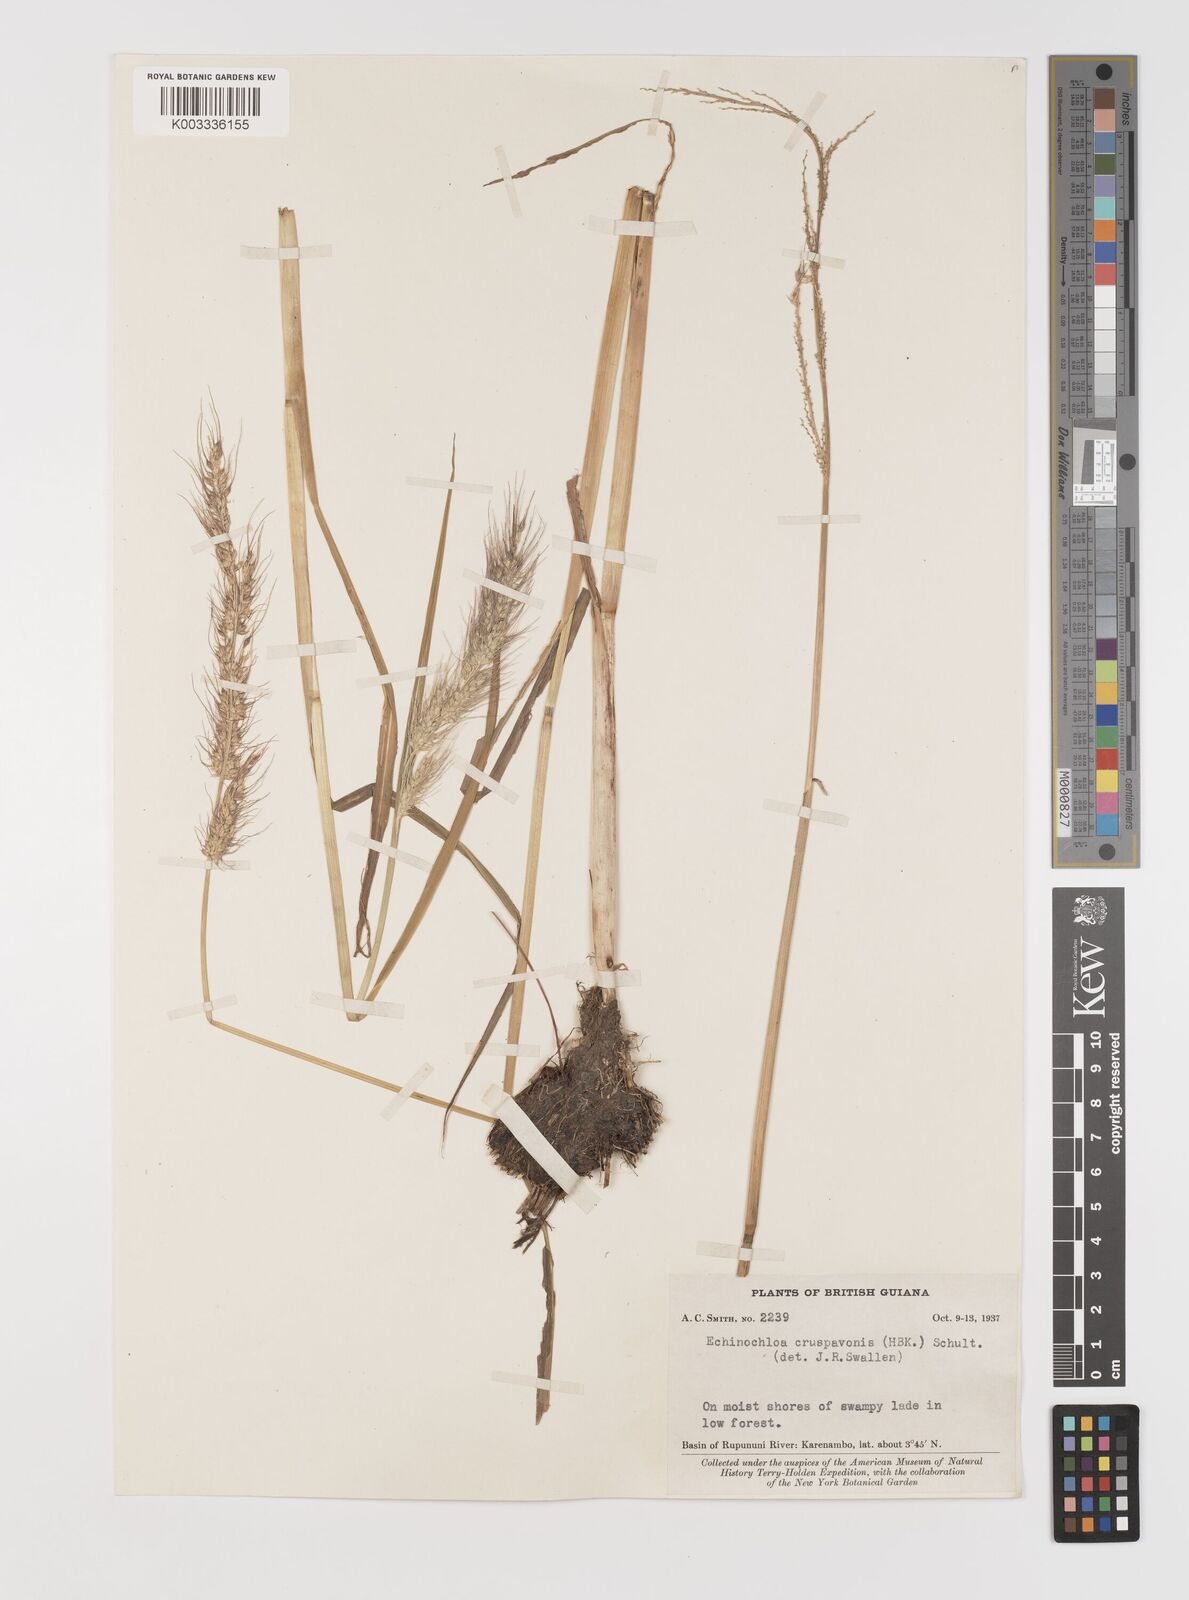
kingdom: Plantae
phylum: Tracheophyta
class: Liliopsida
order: Poales
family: Poaceae
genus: Echinochloa
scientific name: Echinochloa crus-pavonis
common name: Gulf cockspur grass
